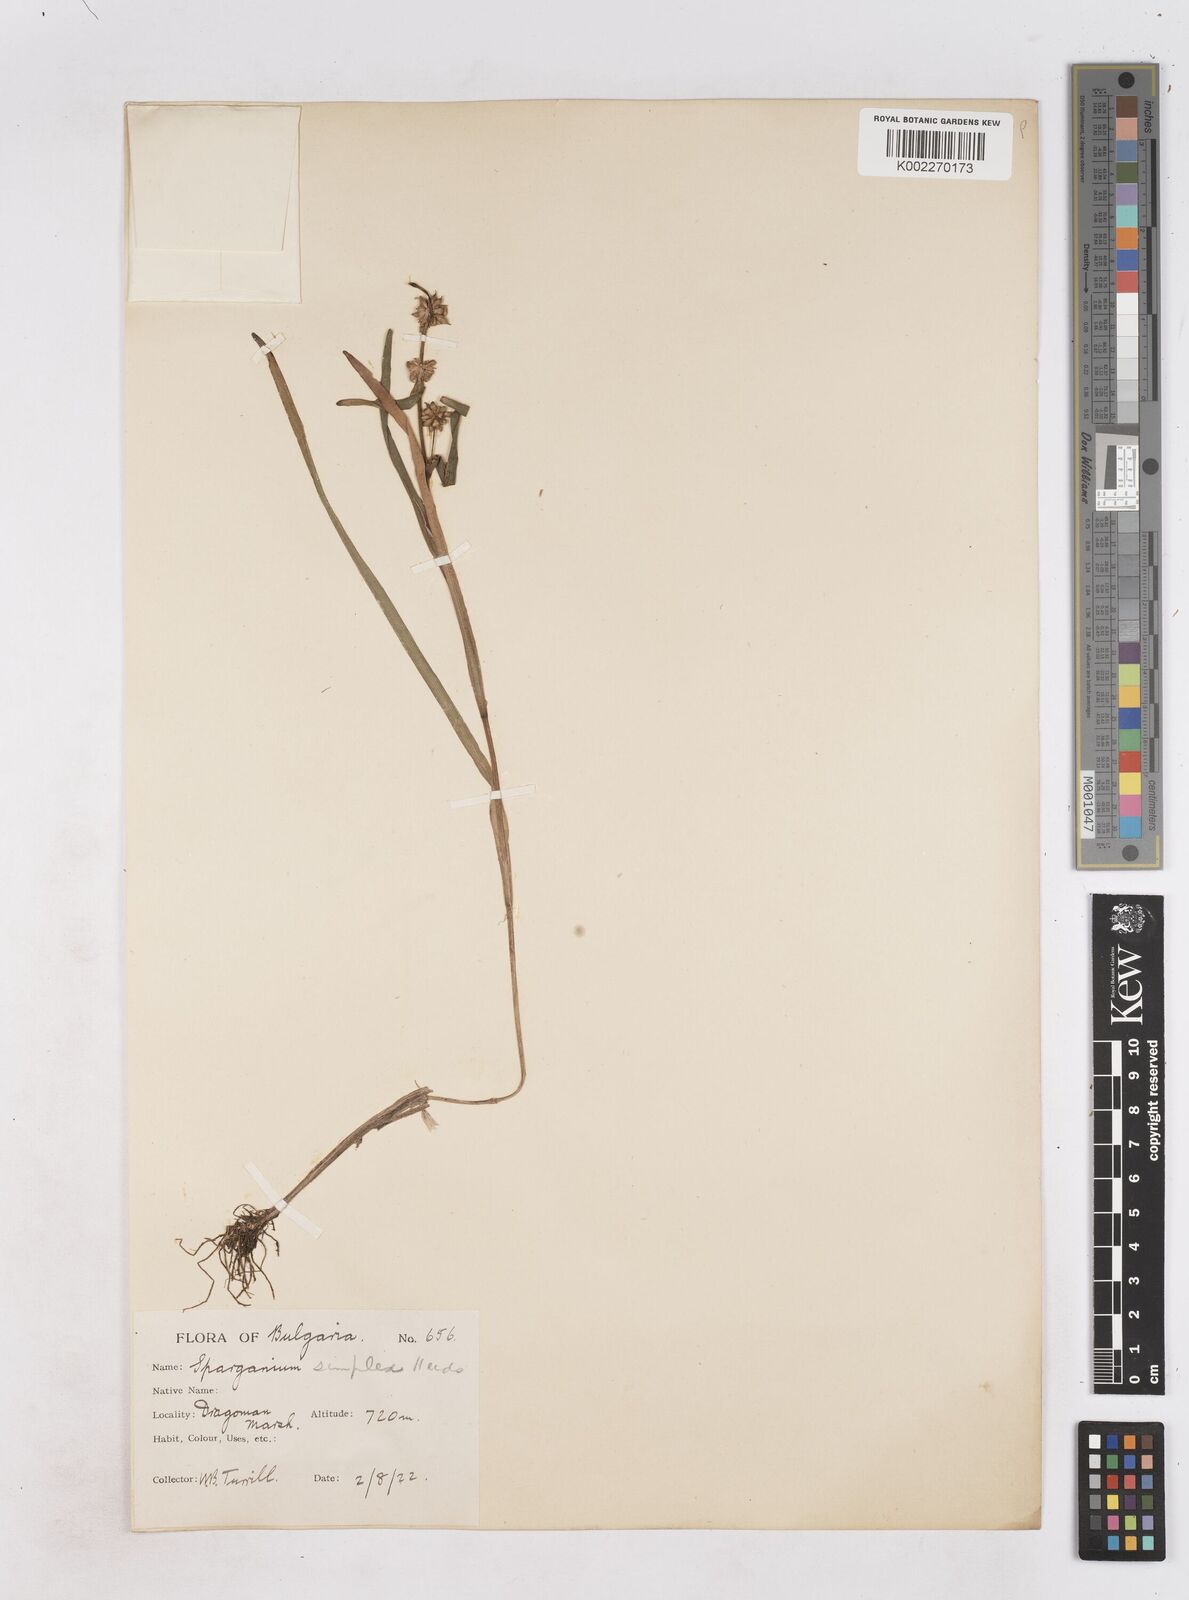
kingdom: Plantae
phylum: Tracheophyta
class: Liliopsida
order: Poales
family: Typhaceae
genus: Sparganium
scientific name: Sparganium natans
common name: Least bur-reed
